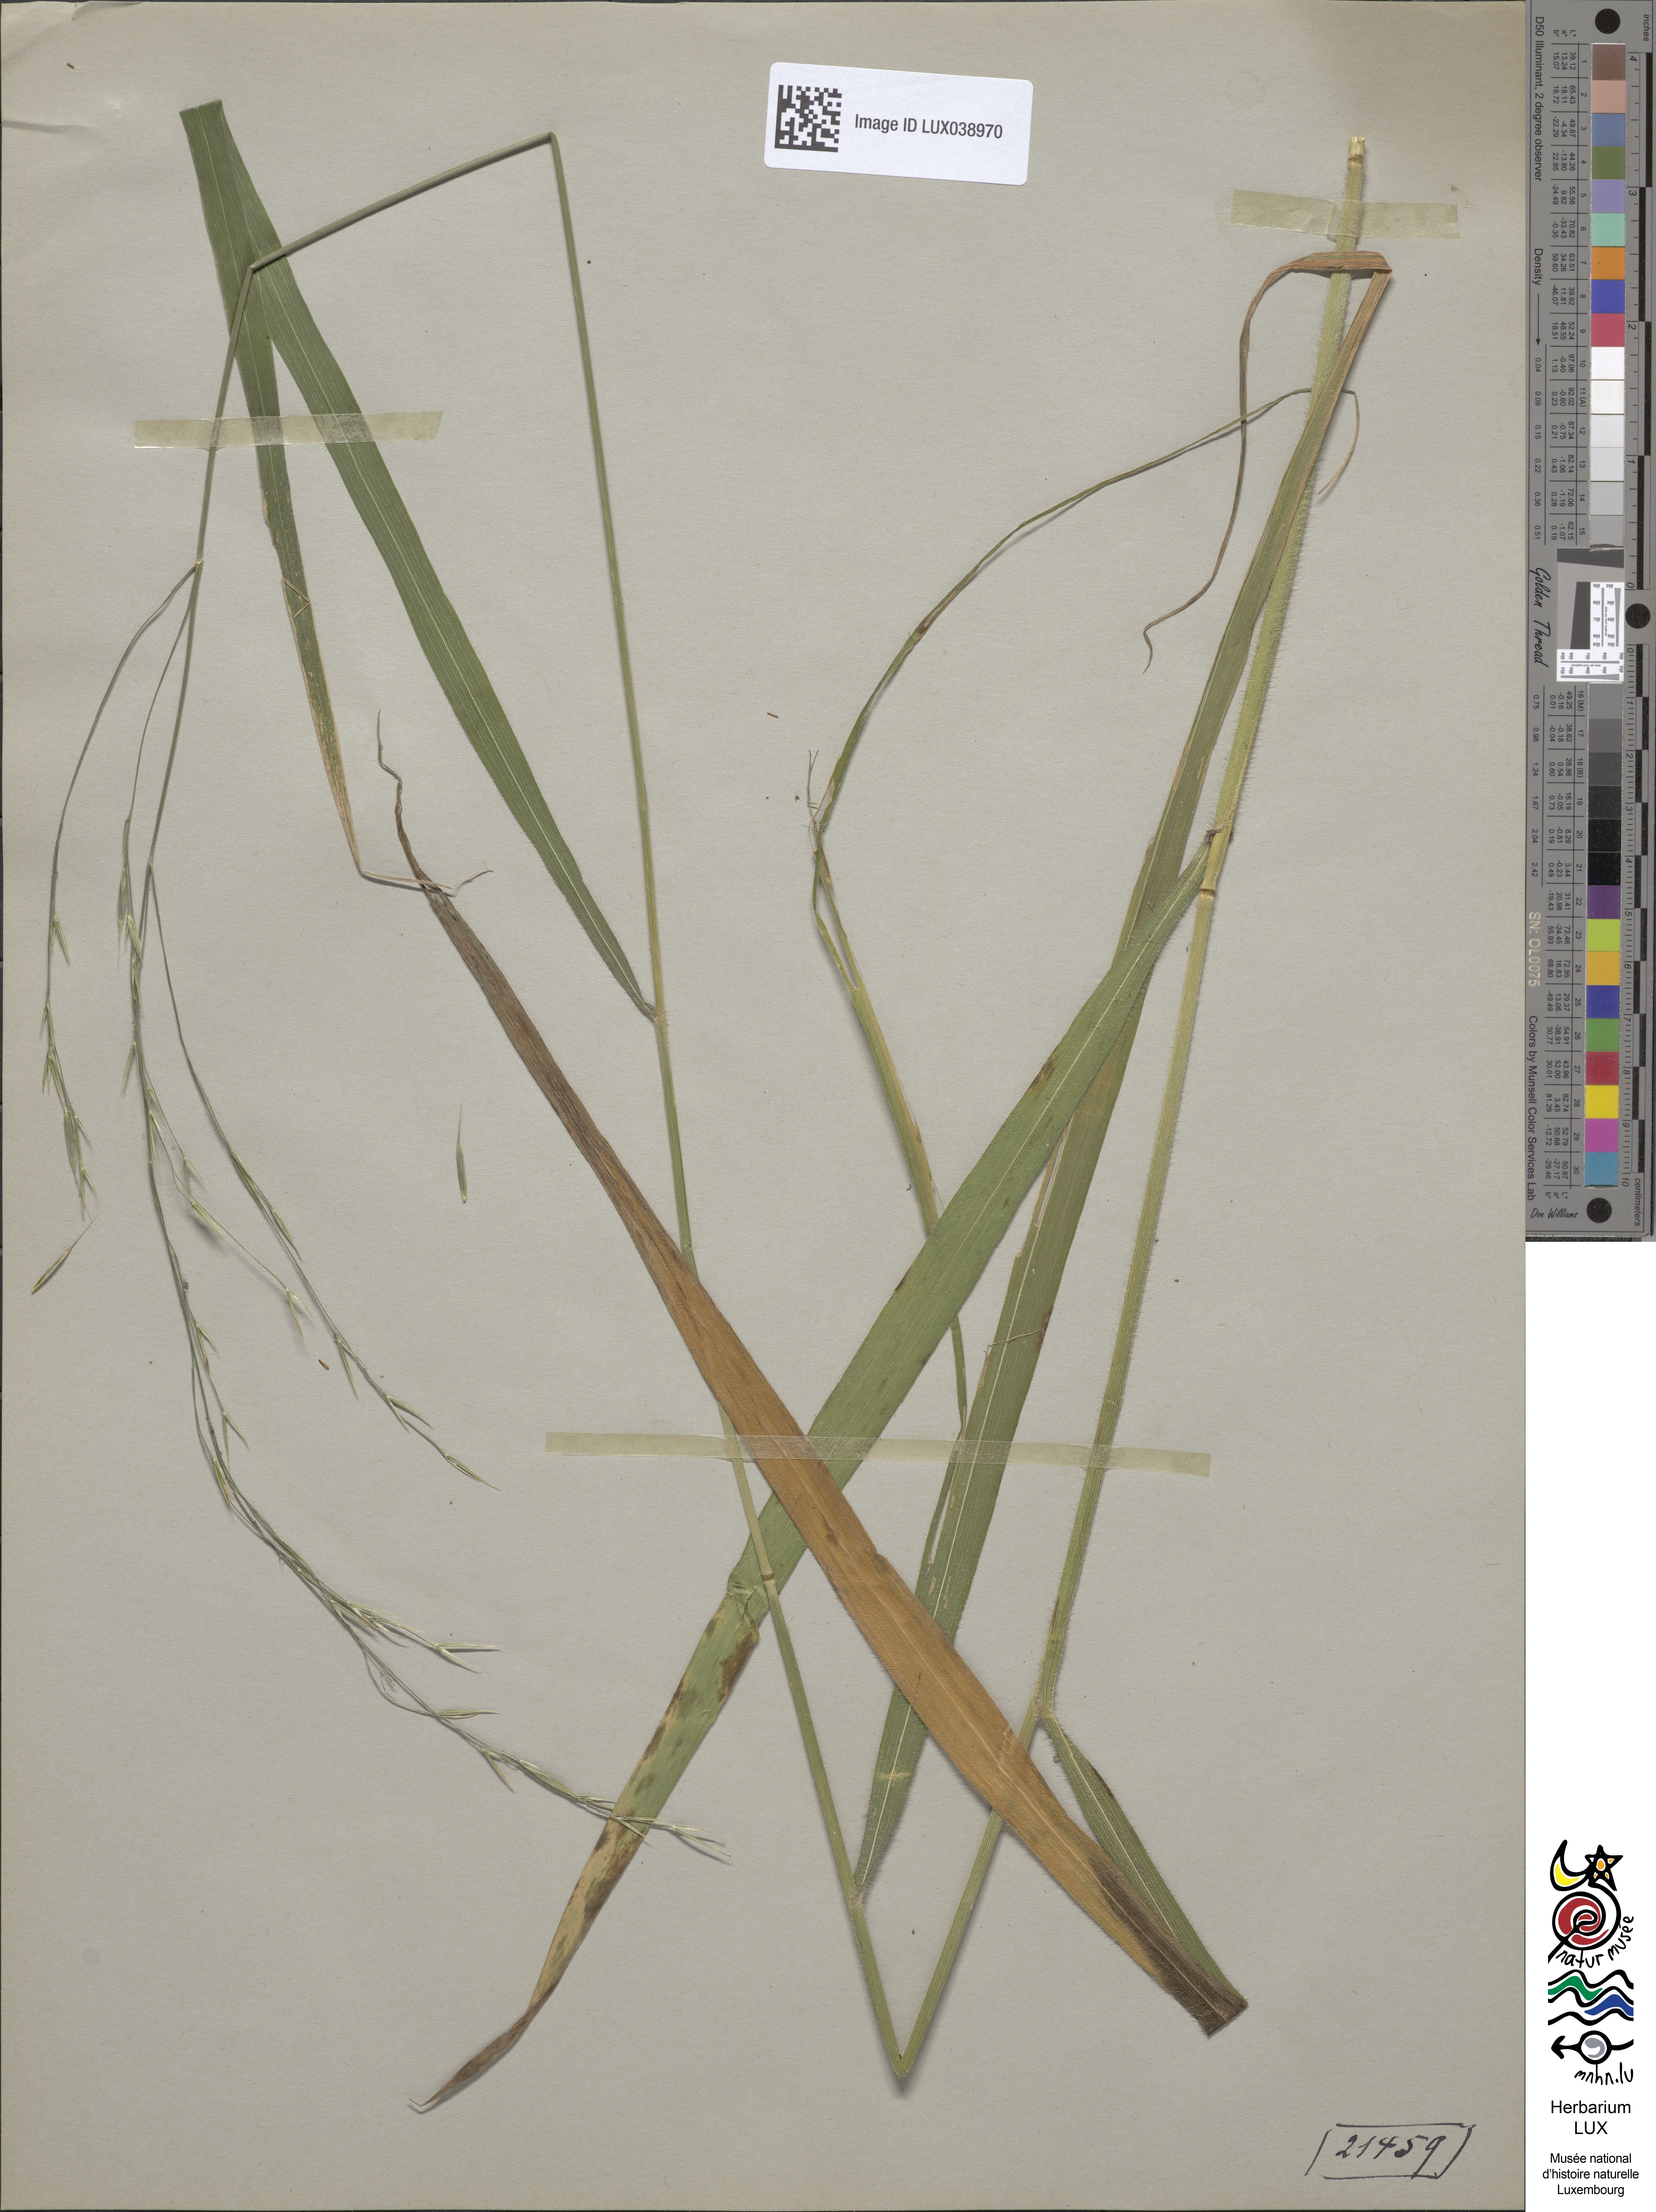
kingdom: Plantae
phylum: Tracheophyta
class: Liliopsida
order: Poales
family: Poaceae
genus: Bromus
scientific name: Bromus benekenii
